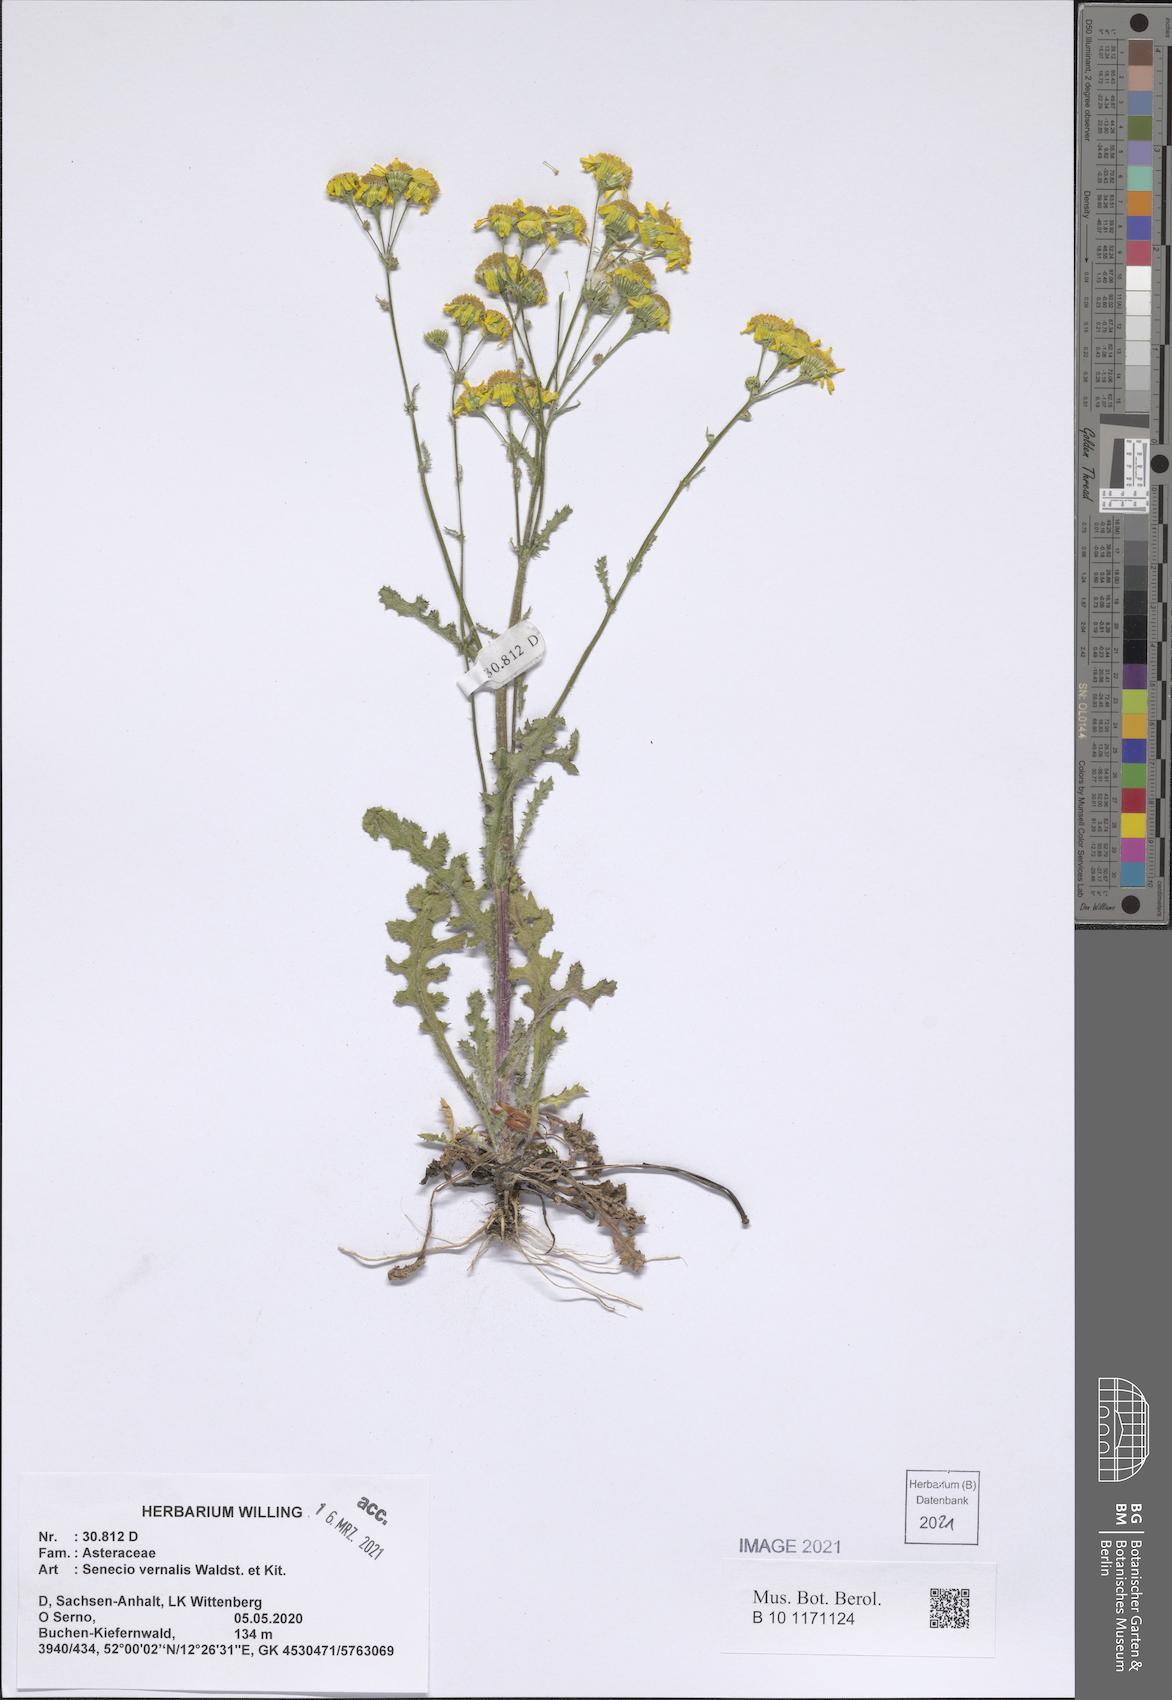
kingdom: Plantae
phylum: Tracheophyta
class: Magnoliopsida
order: Asterales
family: Asteraceae
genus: Senecio
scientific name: Senecio vernalis
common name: Eastern groundsel
